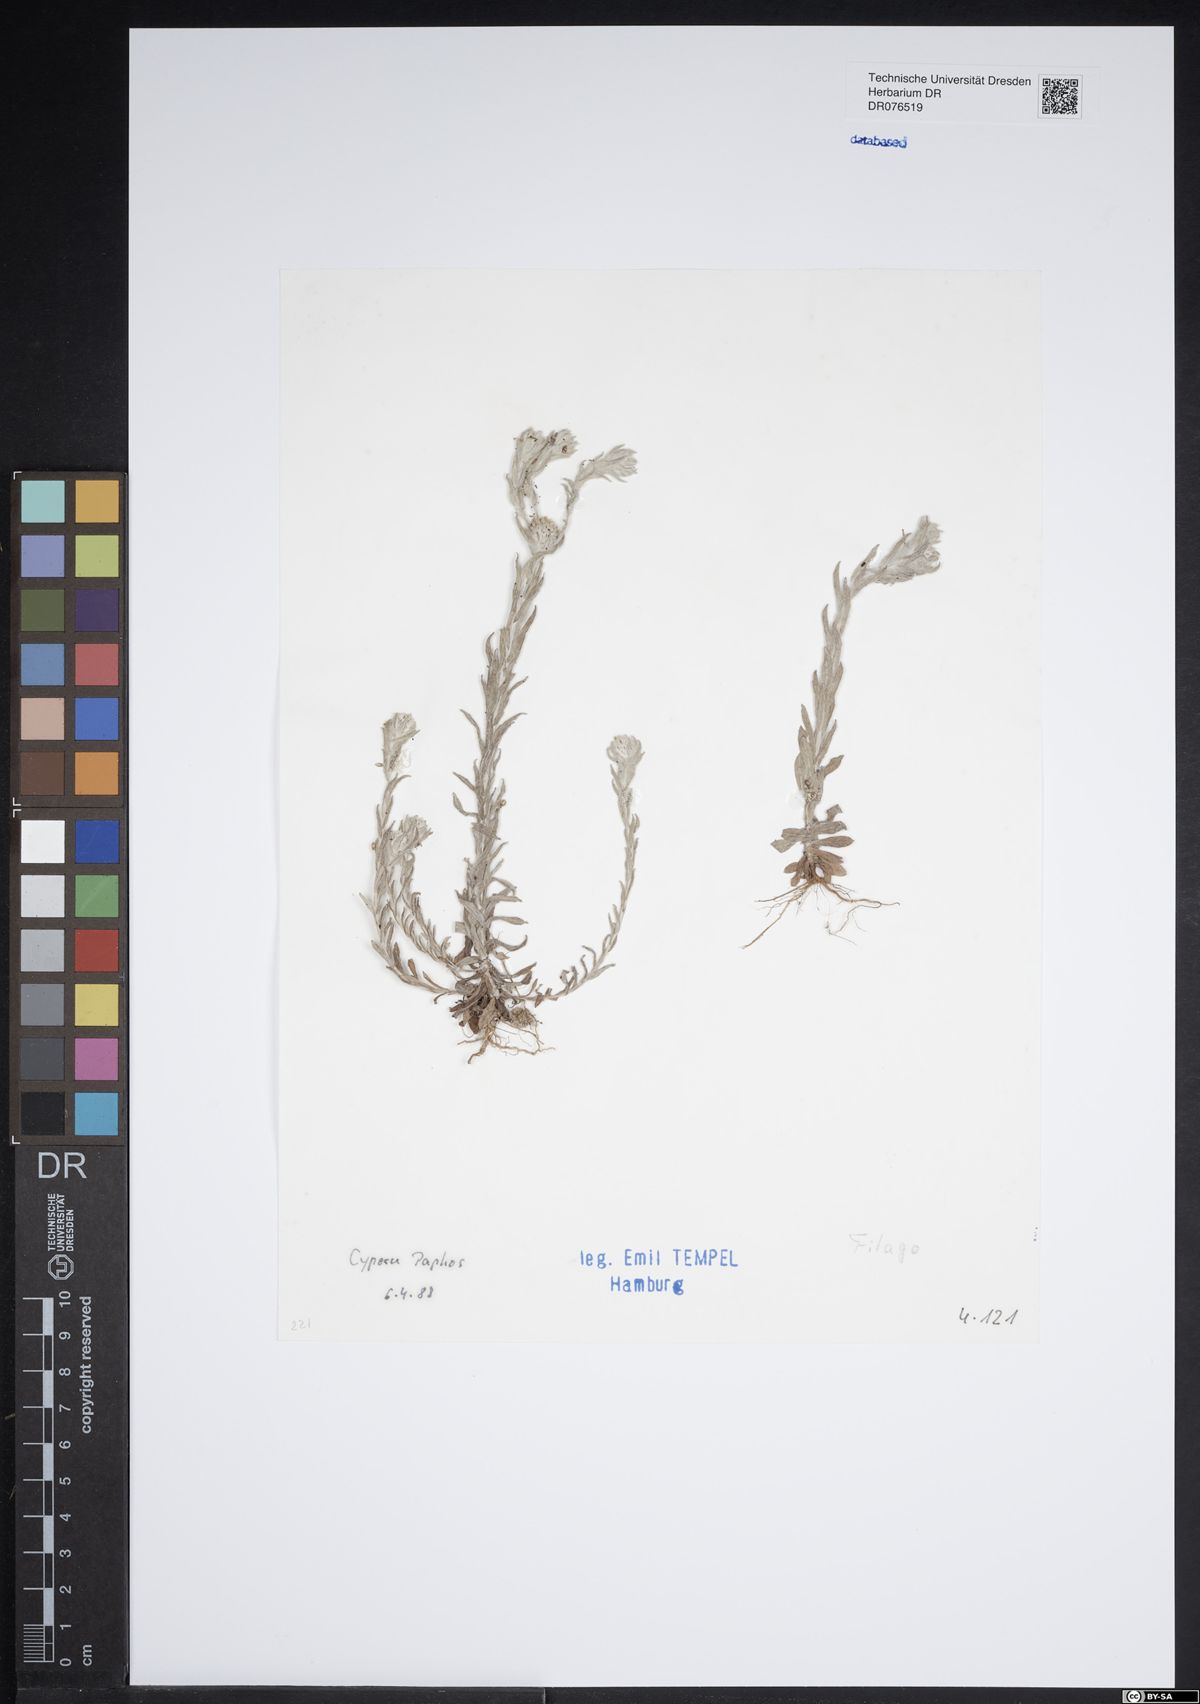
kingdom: Plantae
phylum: Tracheophyta
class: Magnoliopsida
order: Asterales
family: Asteraceae
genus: Filago
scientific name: Filago
